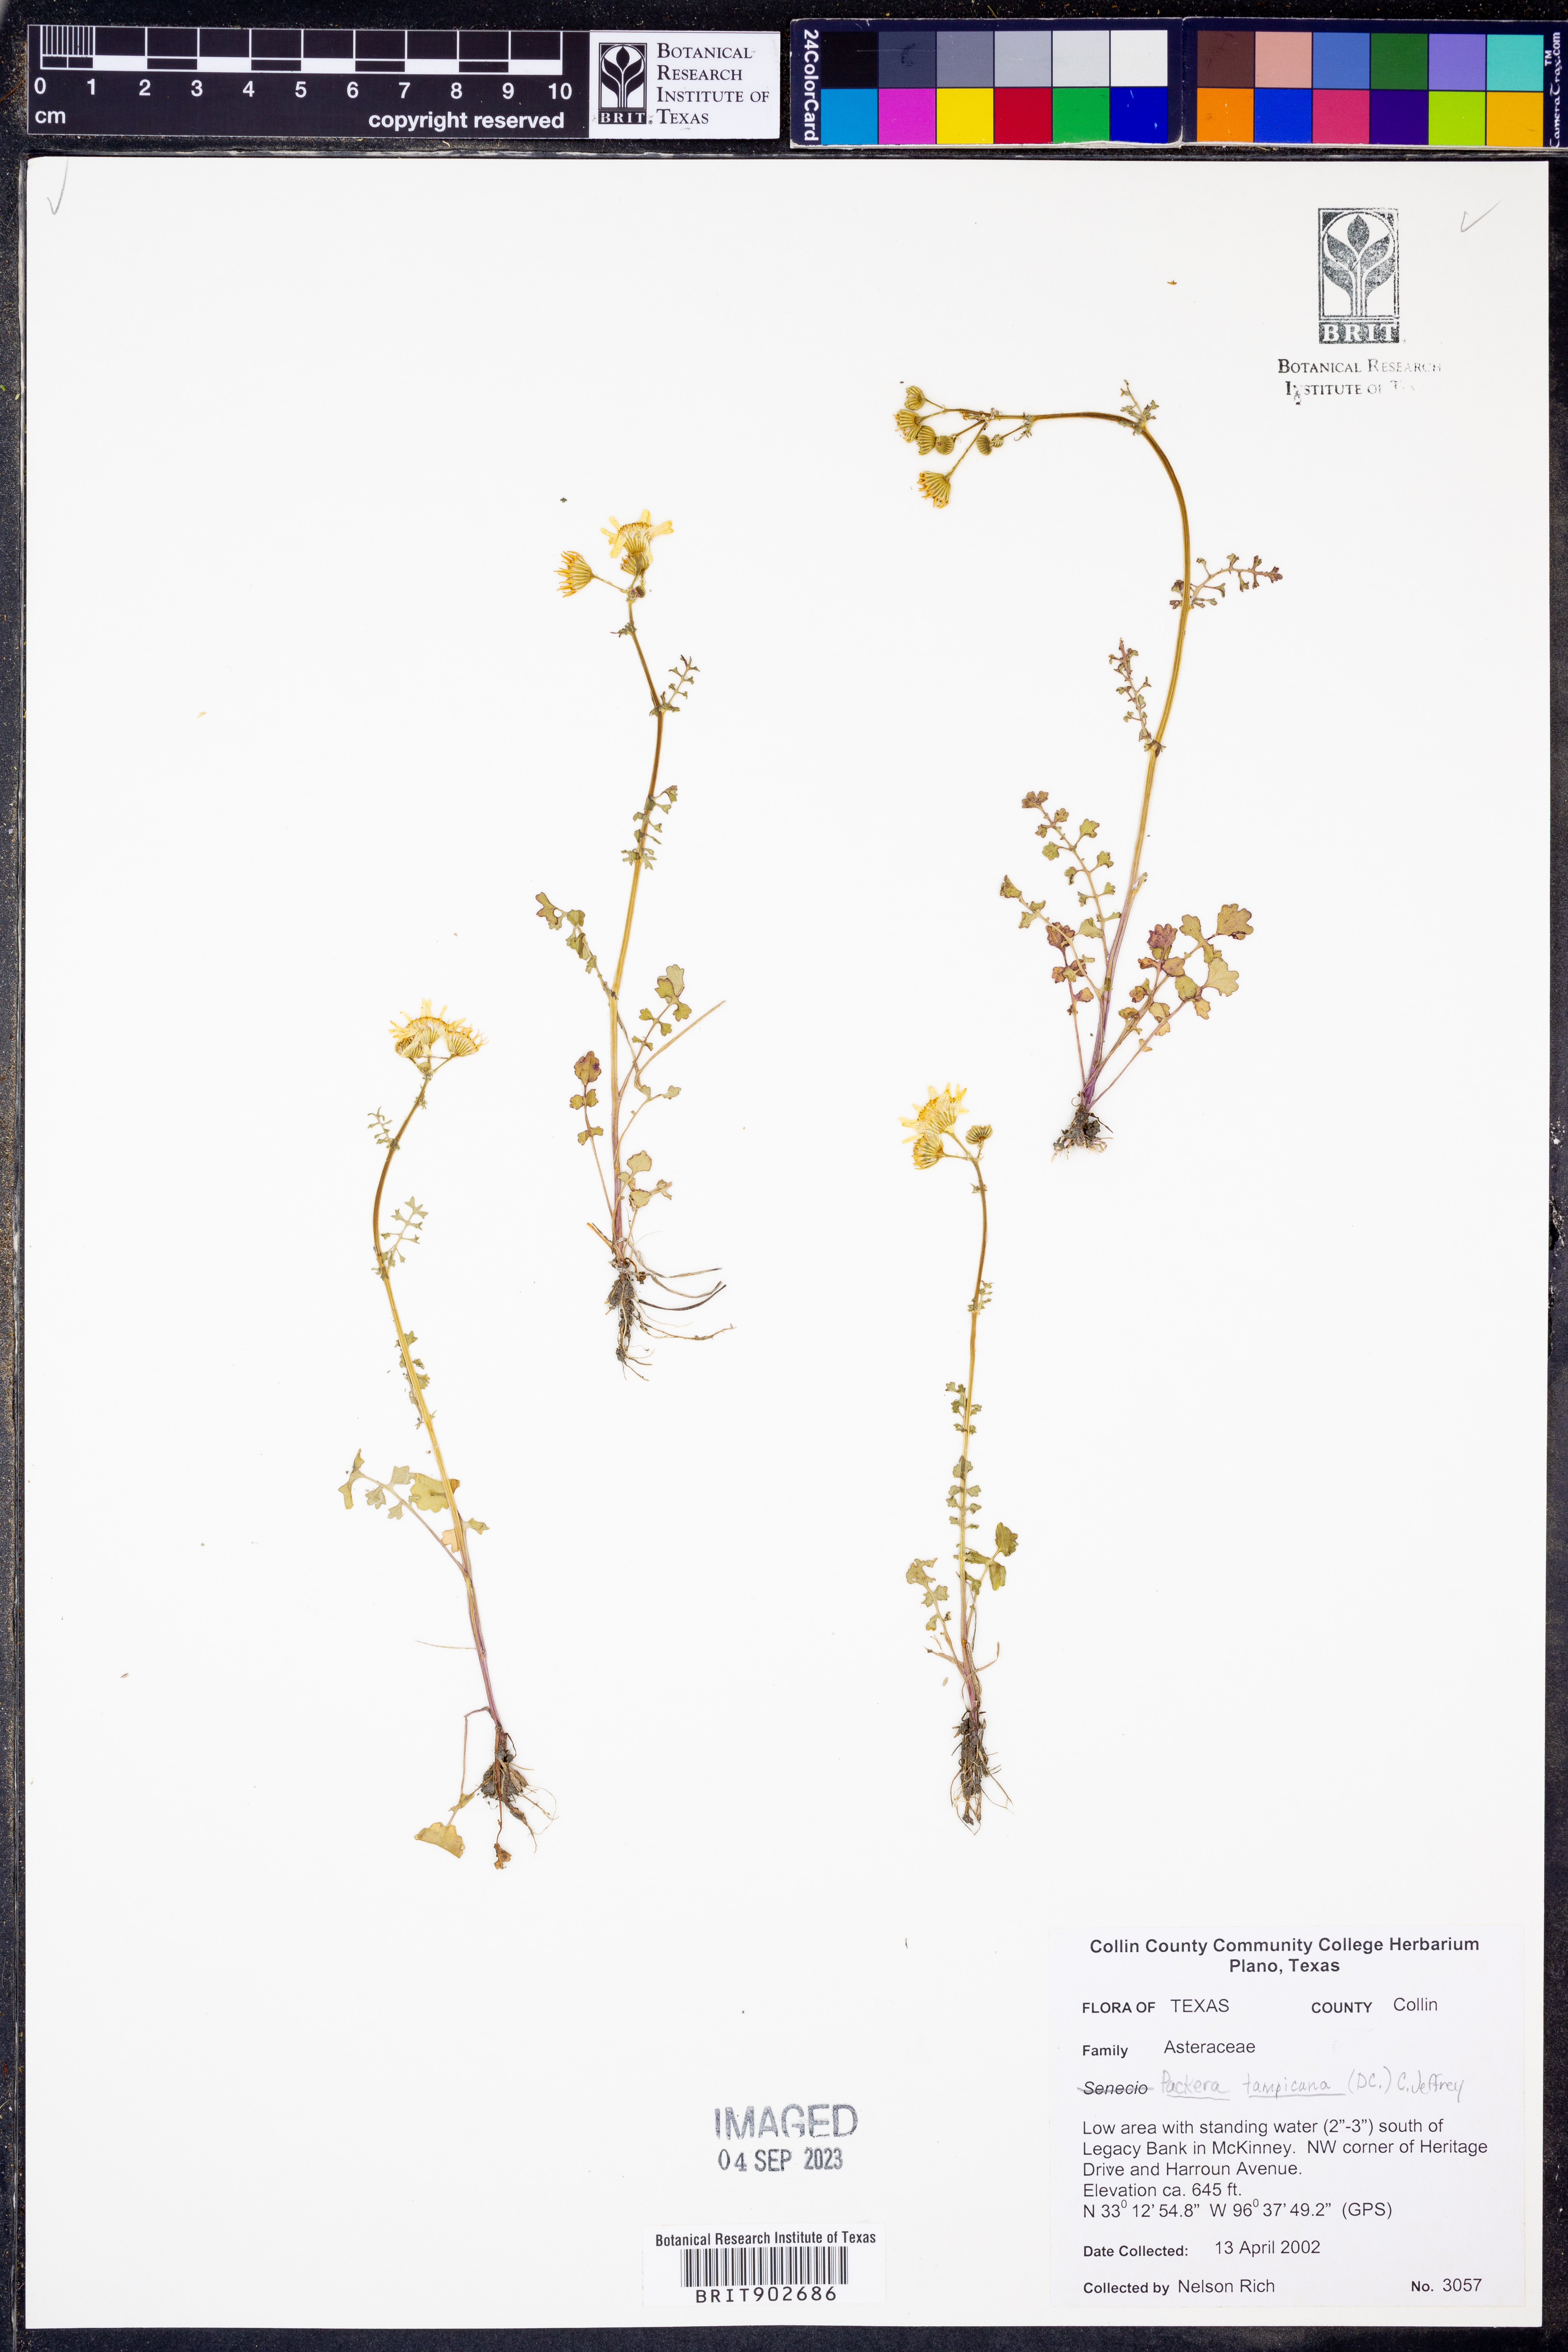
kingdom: Plantae
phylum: Tracheophyta
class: Magnoliopsida
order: Asterales
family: Asteraceae
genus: Packera
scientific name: Packera tampicana
